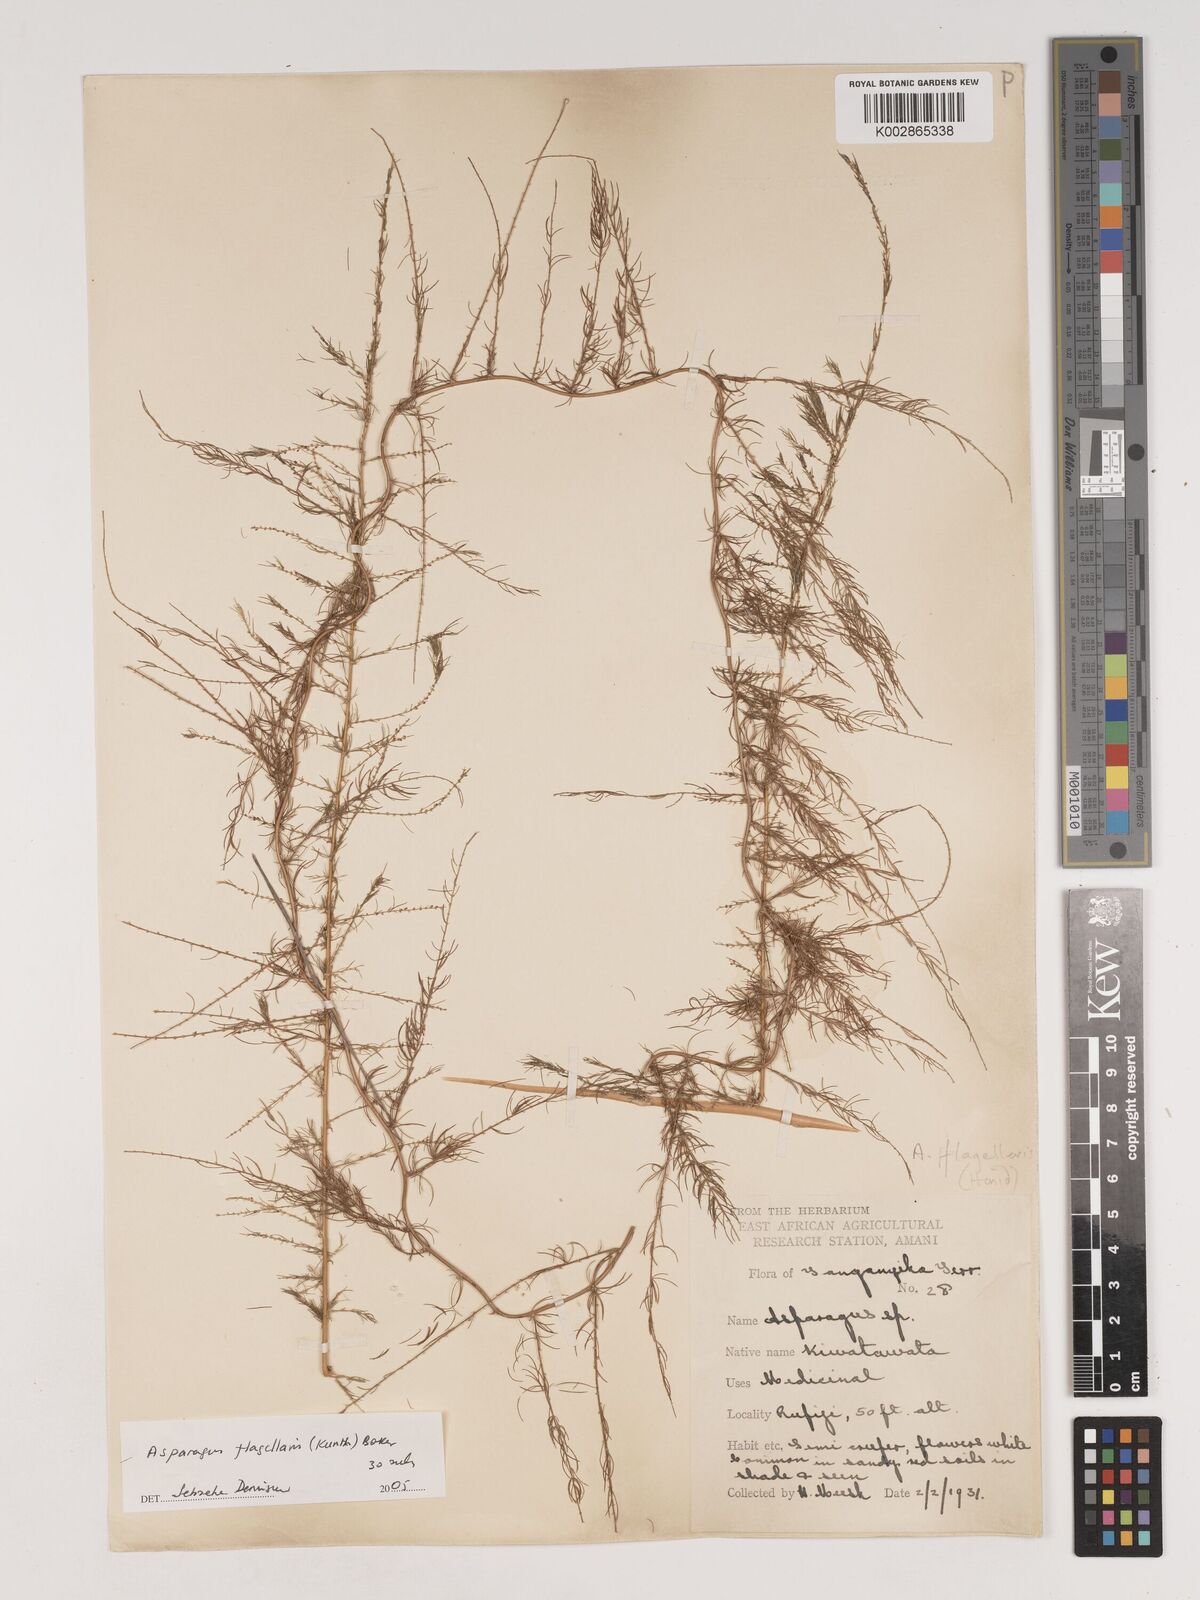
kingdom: Plantae
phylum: Tracheophyta
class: Liliopsida
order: Asparagales
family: Asparagaceae
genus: Asparagus
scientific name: Asparagus
